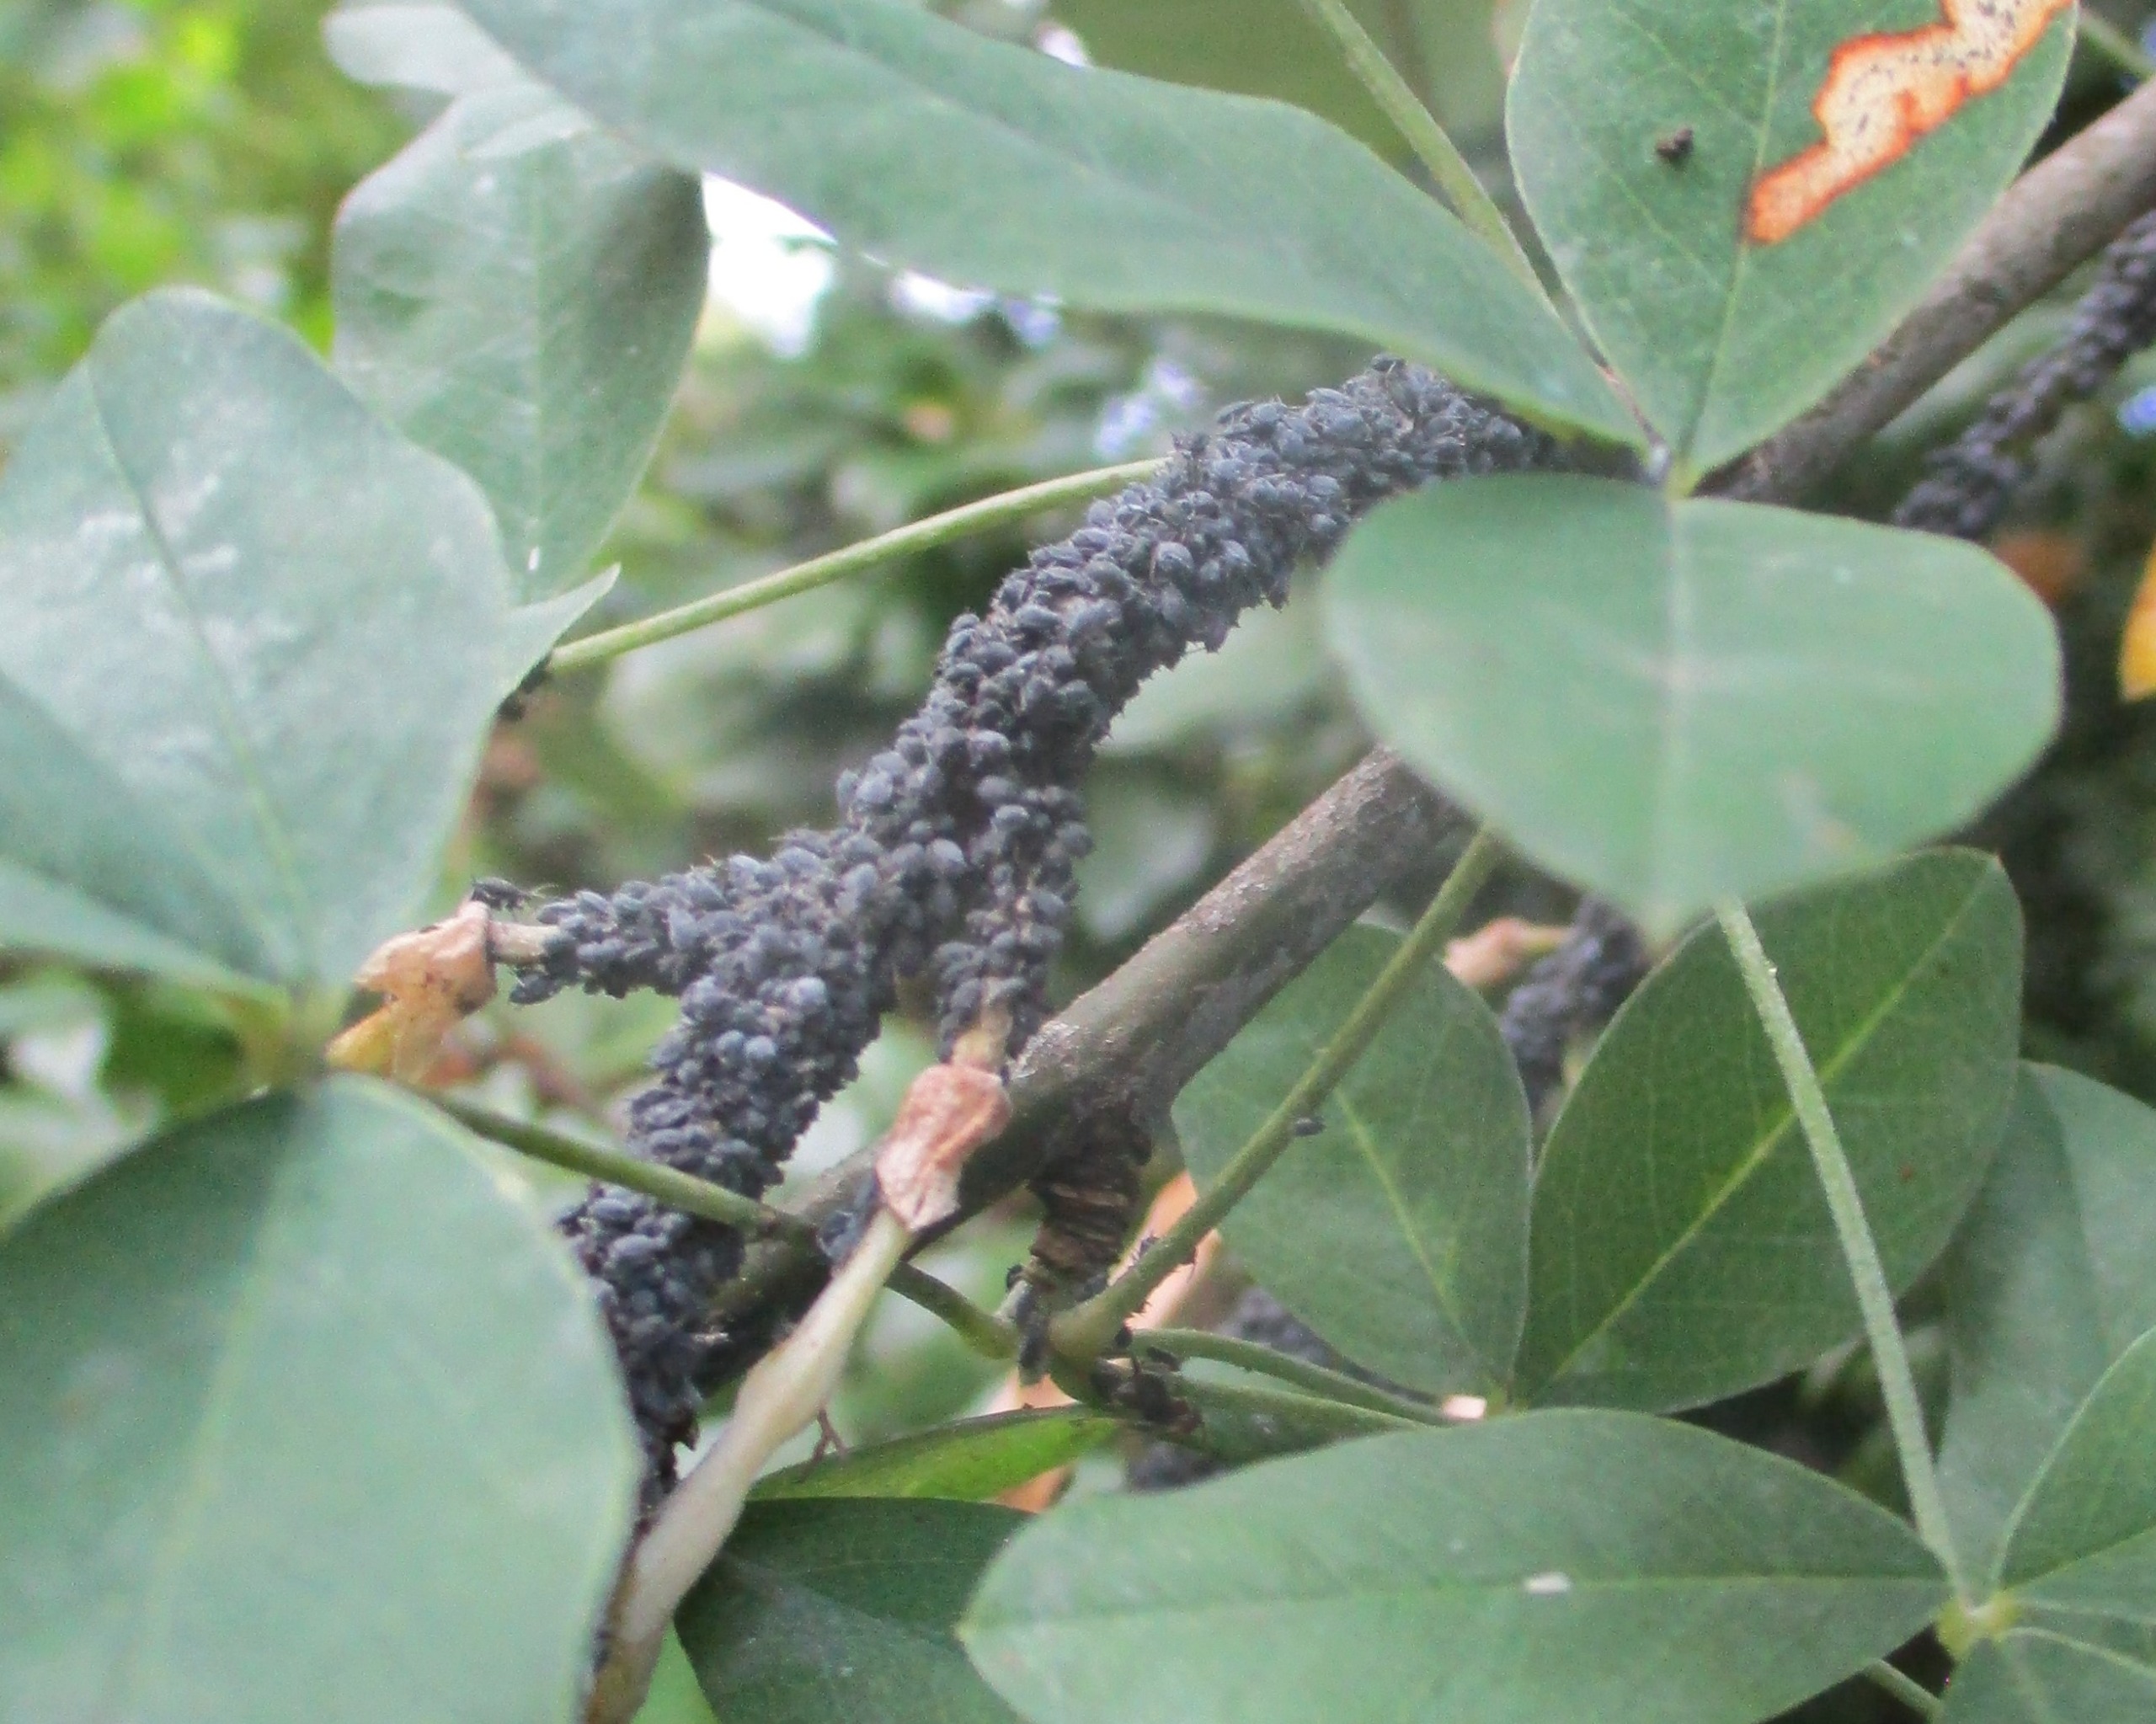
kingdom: Animalia
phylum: Arthropoda
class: Insecta
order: Hemiptera
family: Aphididae
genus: Aphis
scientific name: Aphis cytisorum
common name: Guldregnbladlus
